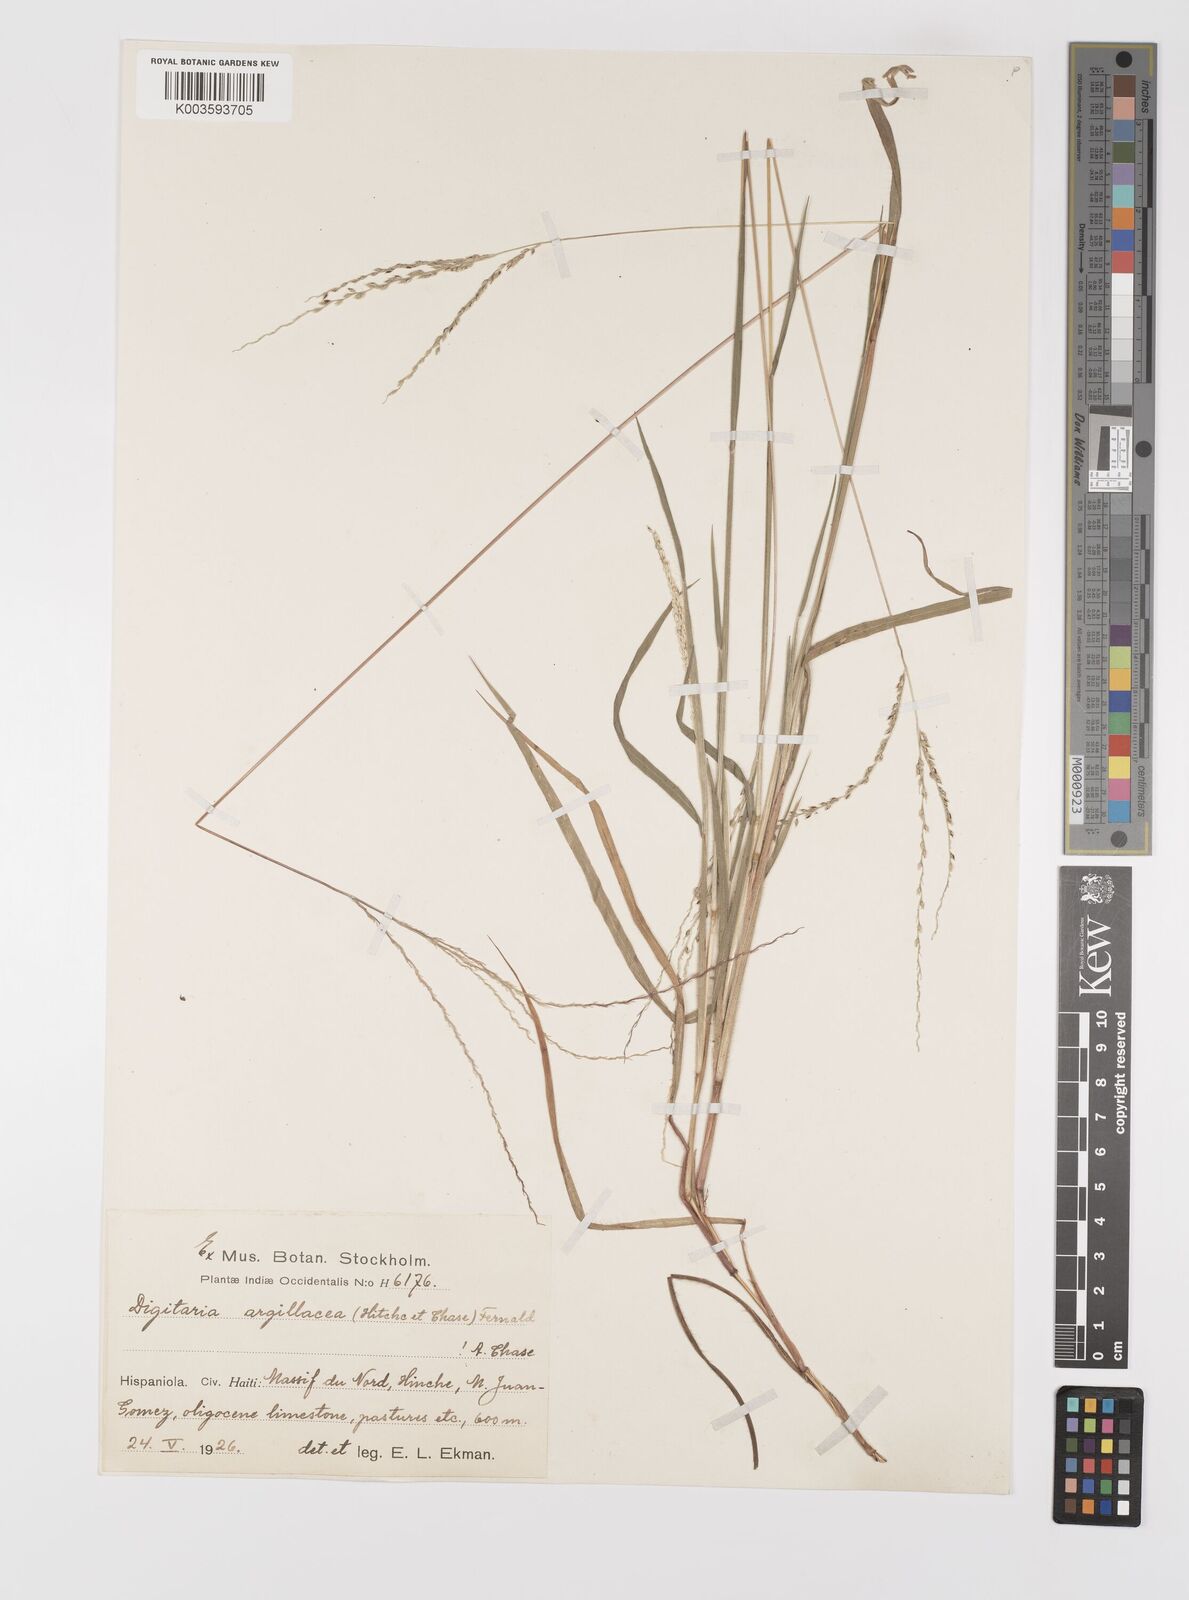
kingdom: Plantae
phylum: Tracheophyta
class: Liliopsida
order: Poales
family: Poaceae
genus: Digitaria
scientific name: Digitaria argillacea
